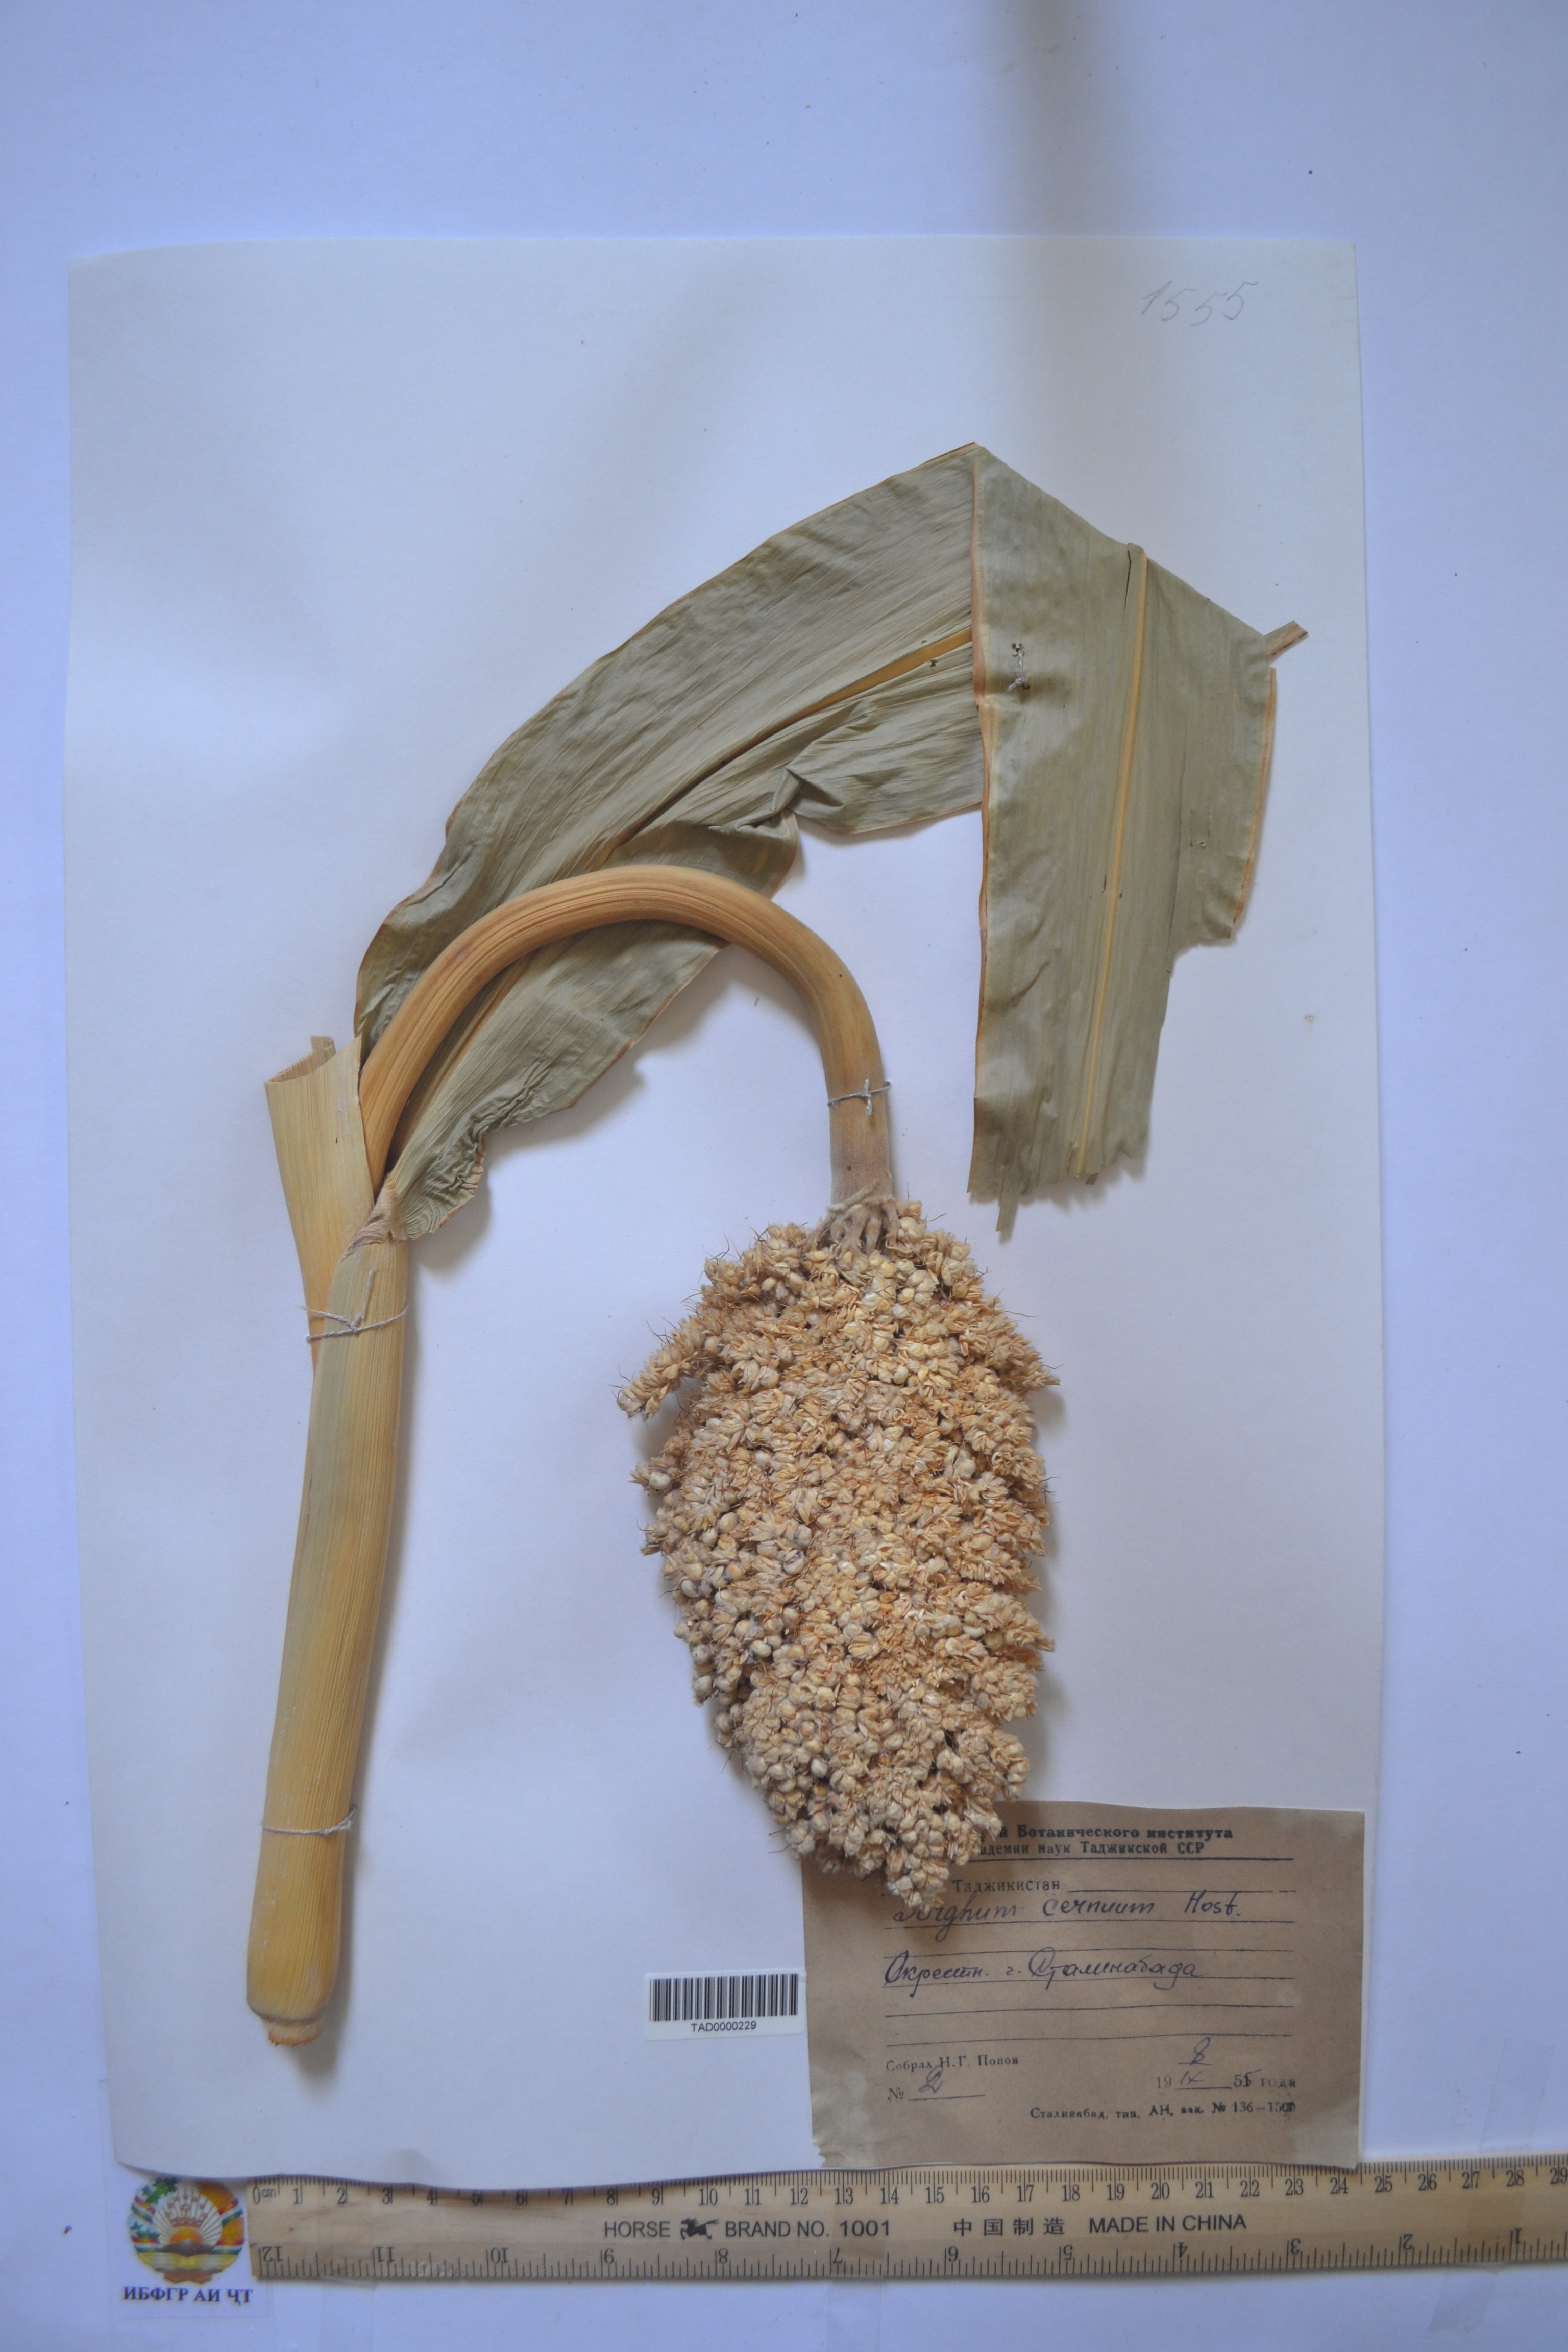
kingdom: Plantae
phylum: Tracheophyta
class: Liliopsida
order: Poales
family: Poaceae
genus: Sorghum
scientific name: Sorghum bicolor
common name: Sorghum
